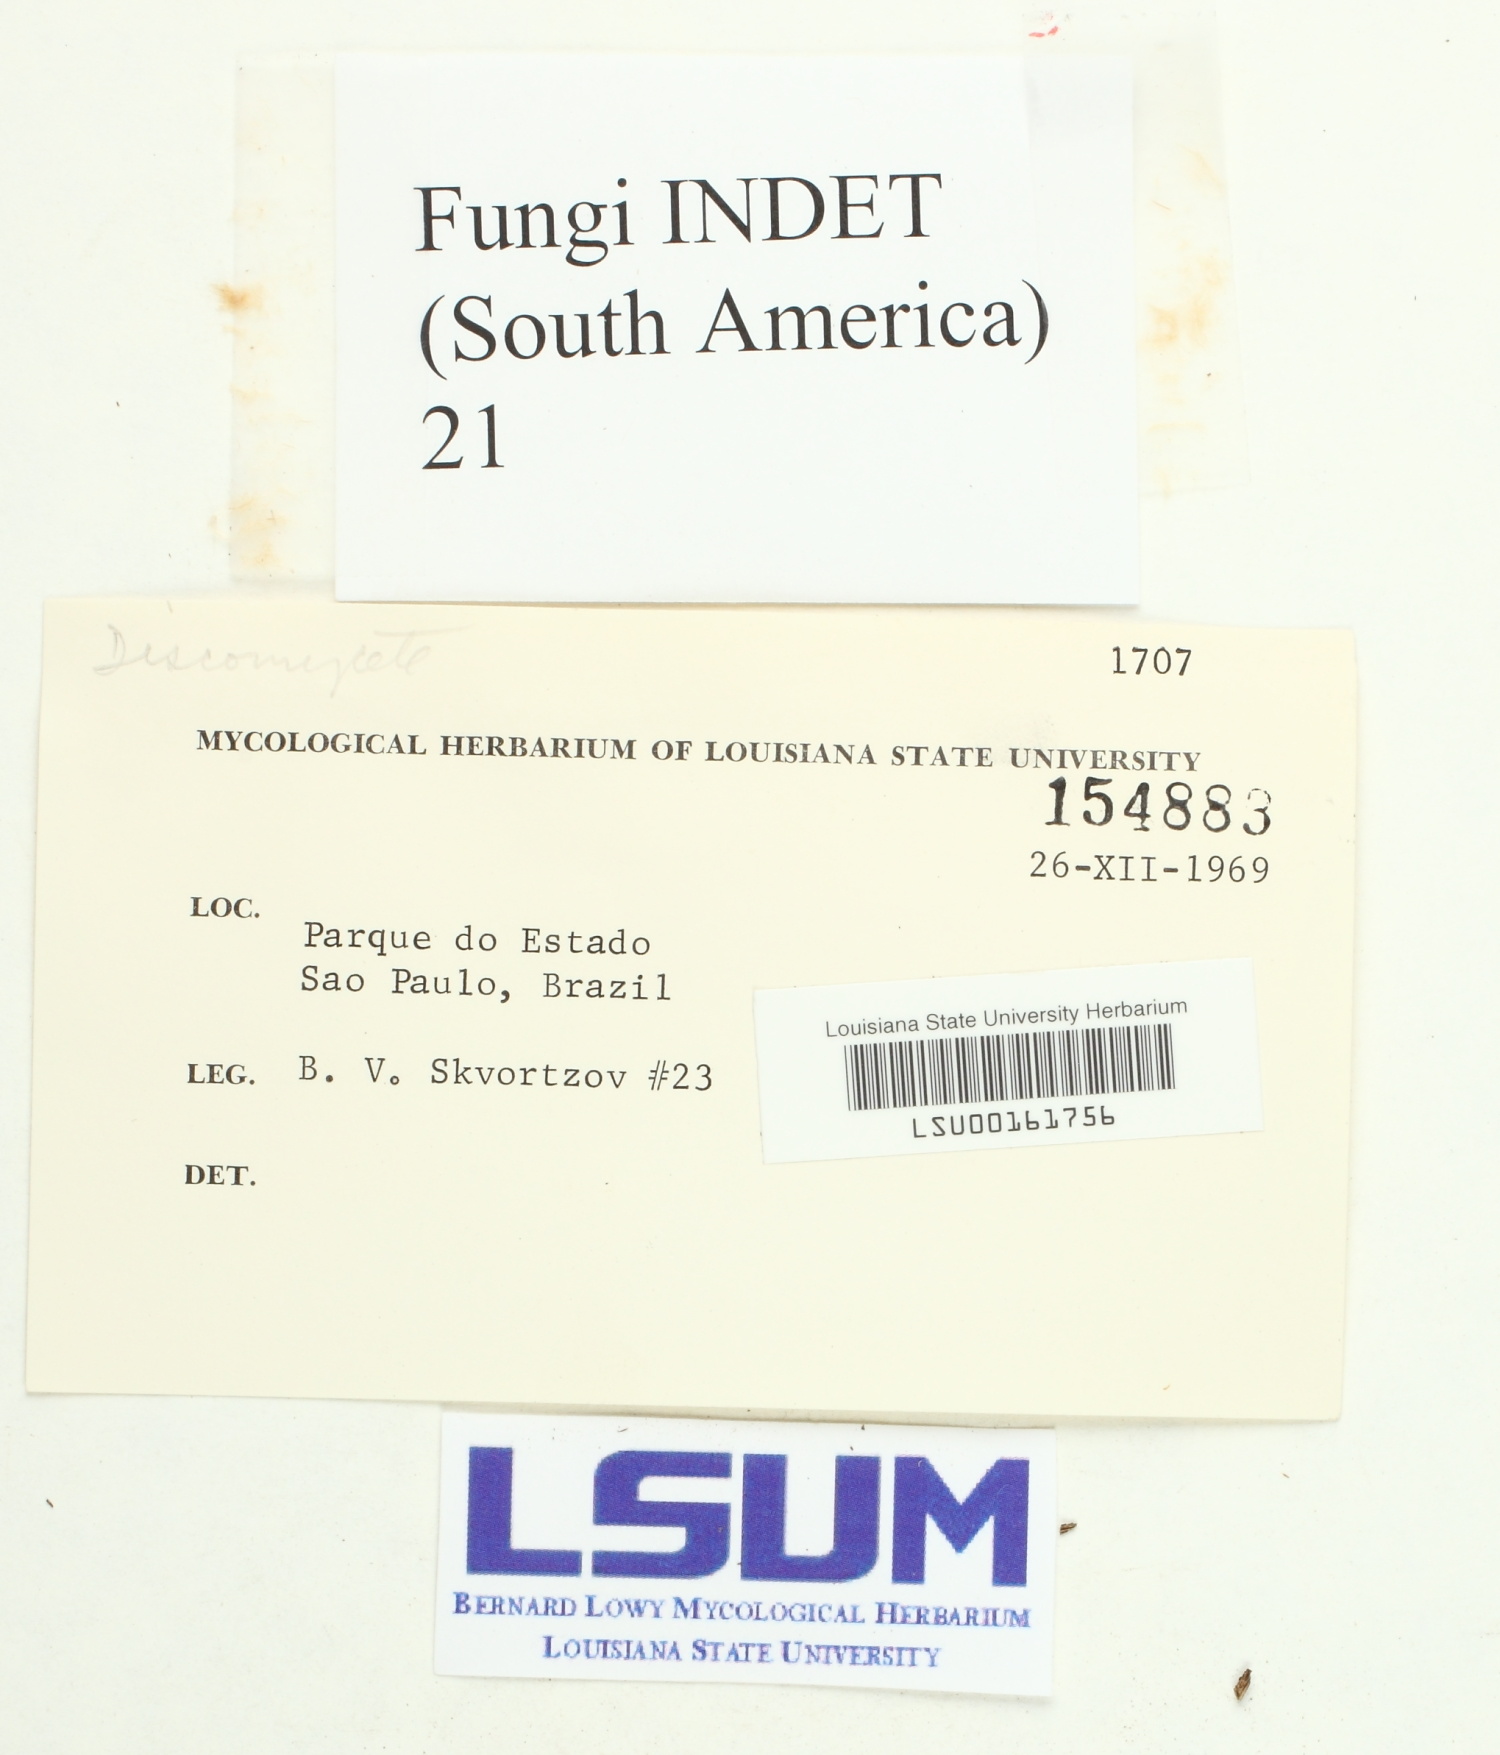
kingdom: Fungi
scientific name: Fungi
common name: Fungi
